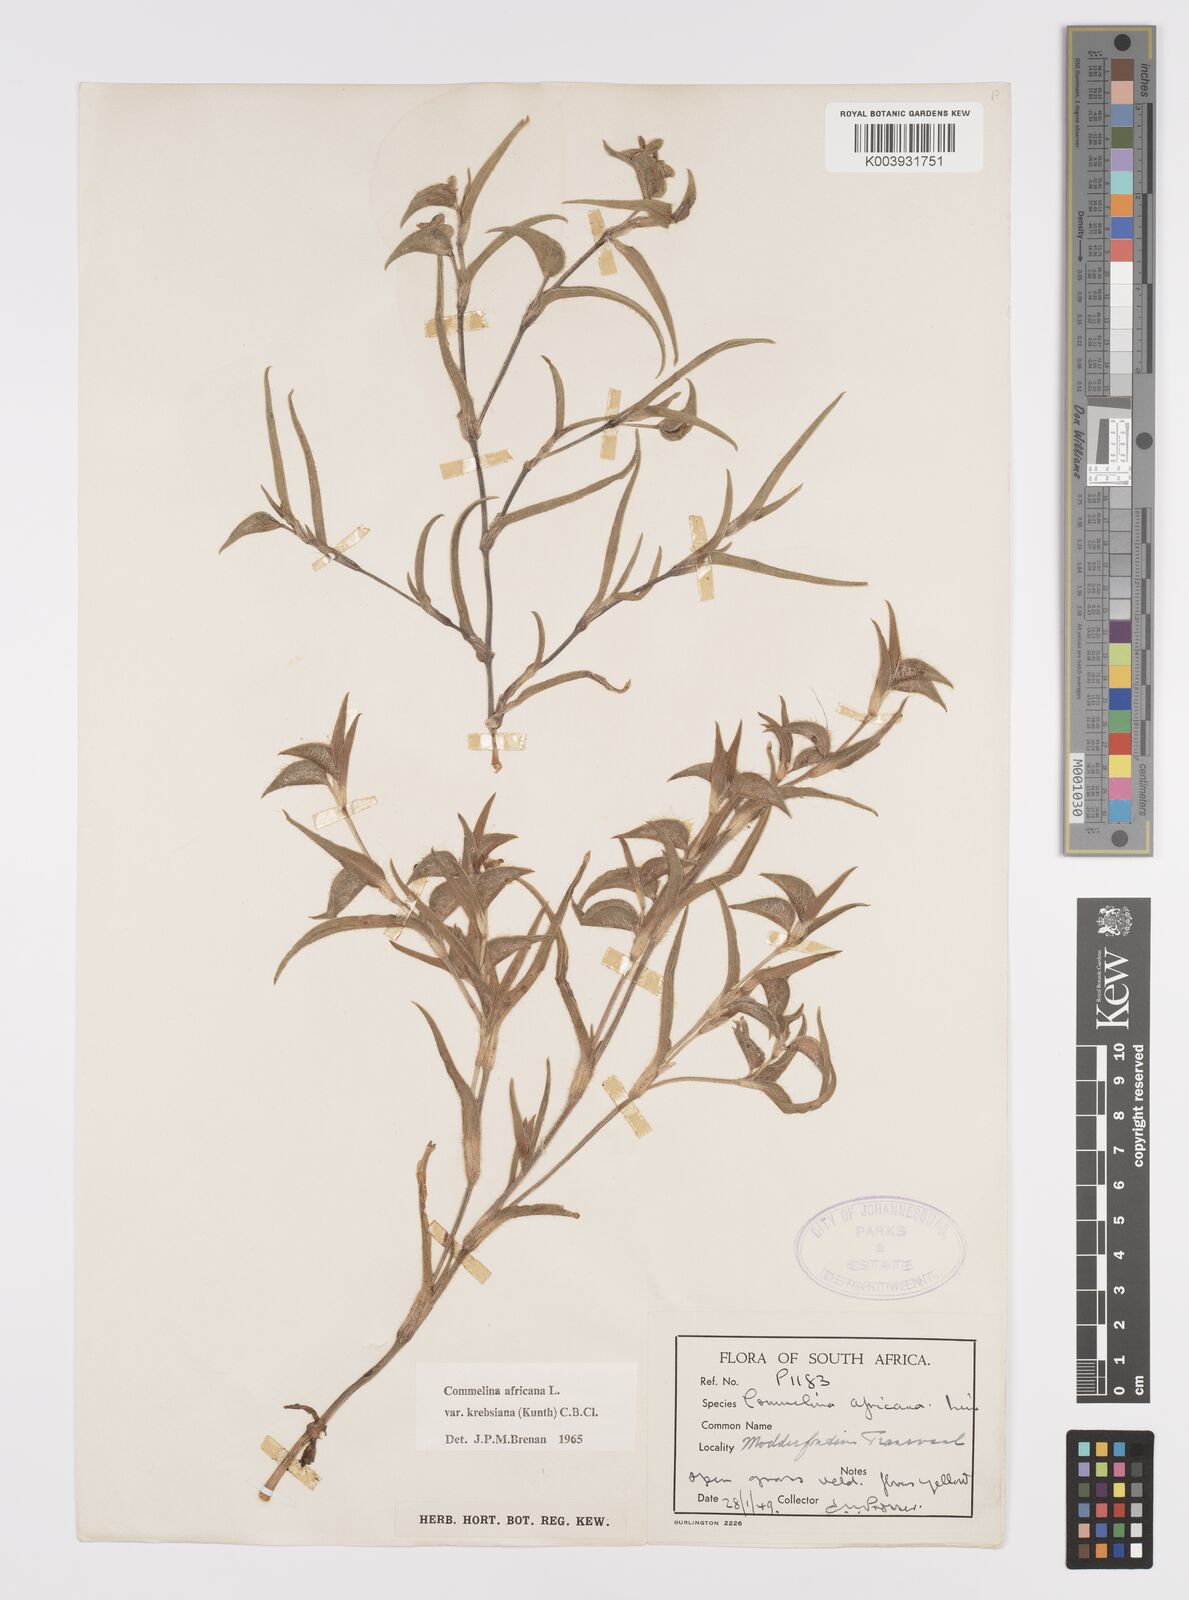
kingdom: Plantae
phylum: Tracheophyta
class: Liliopsida
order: Commelinales
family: Commelinaceae
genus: Commelina
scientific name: Commelina africana
